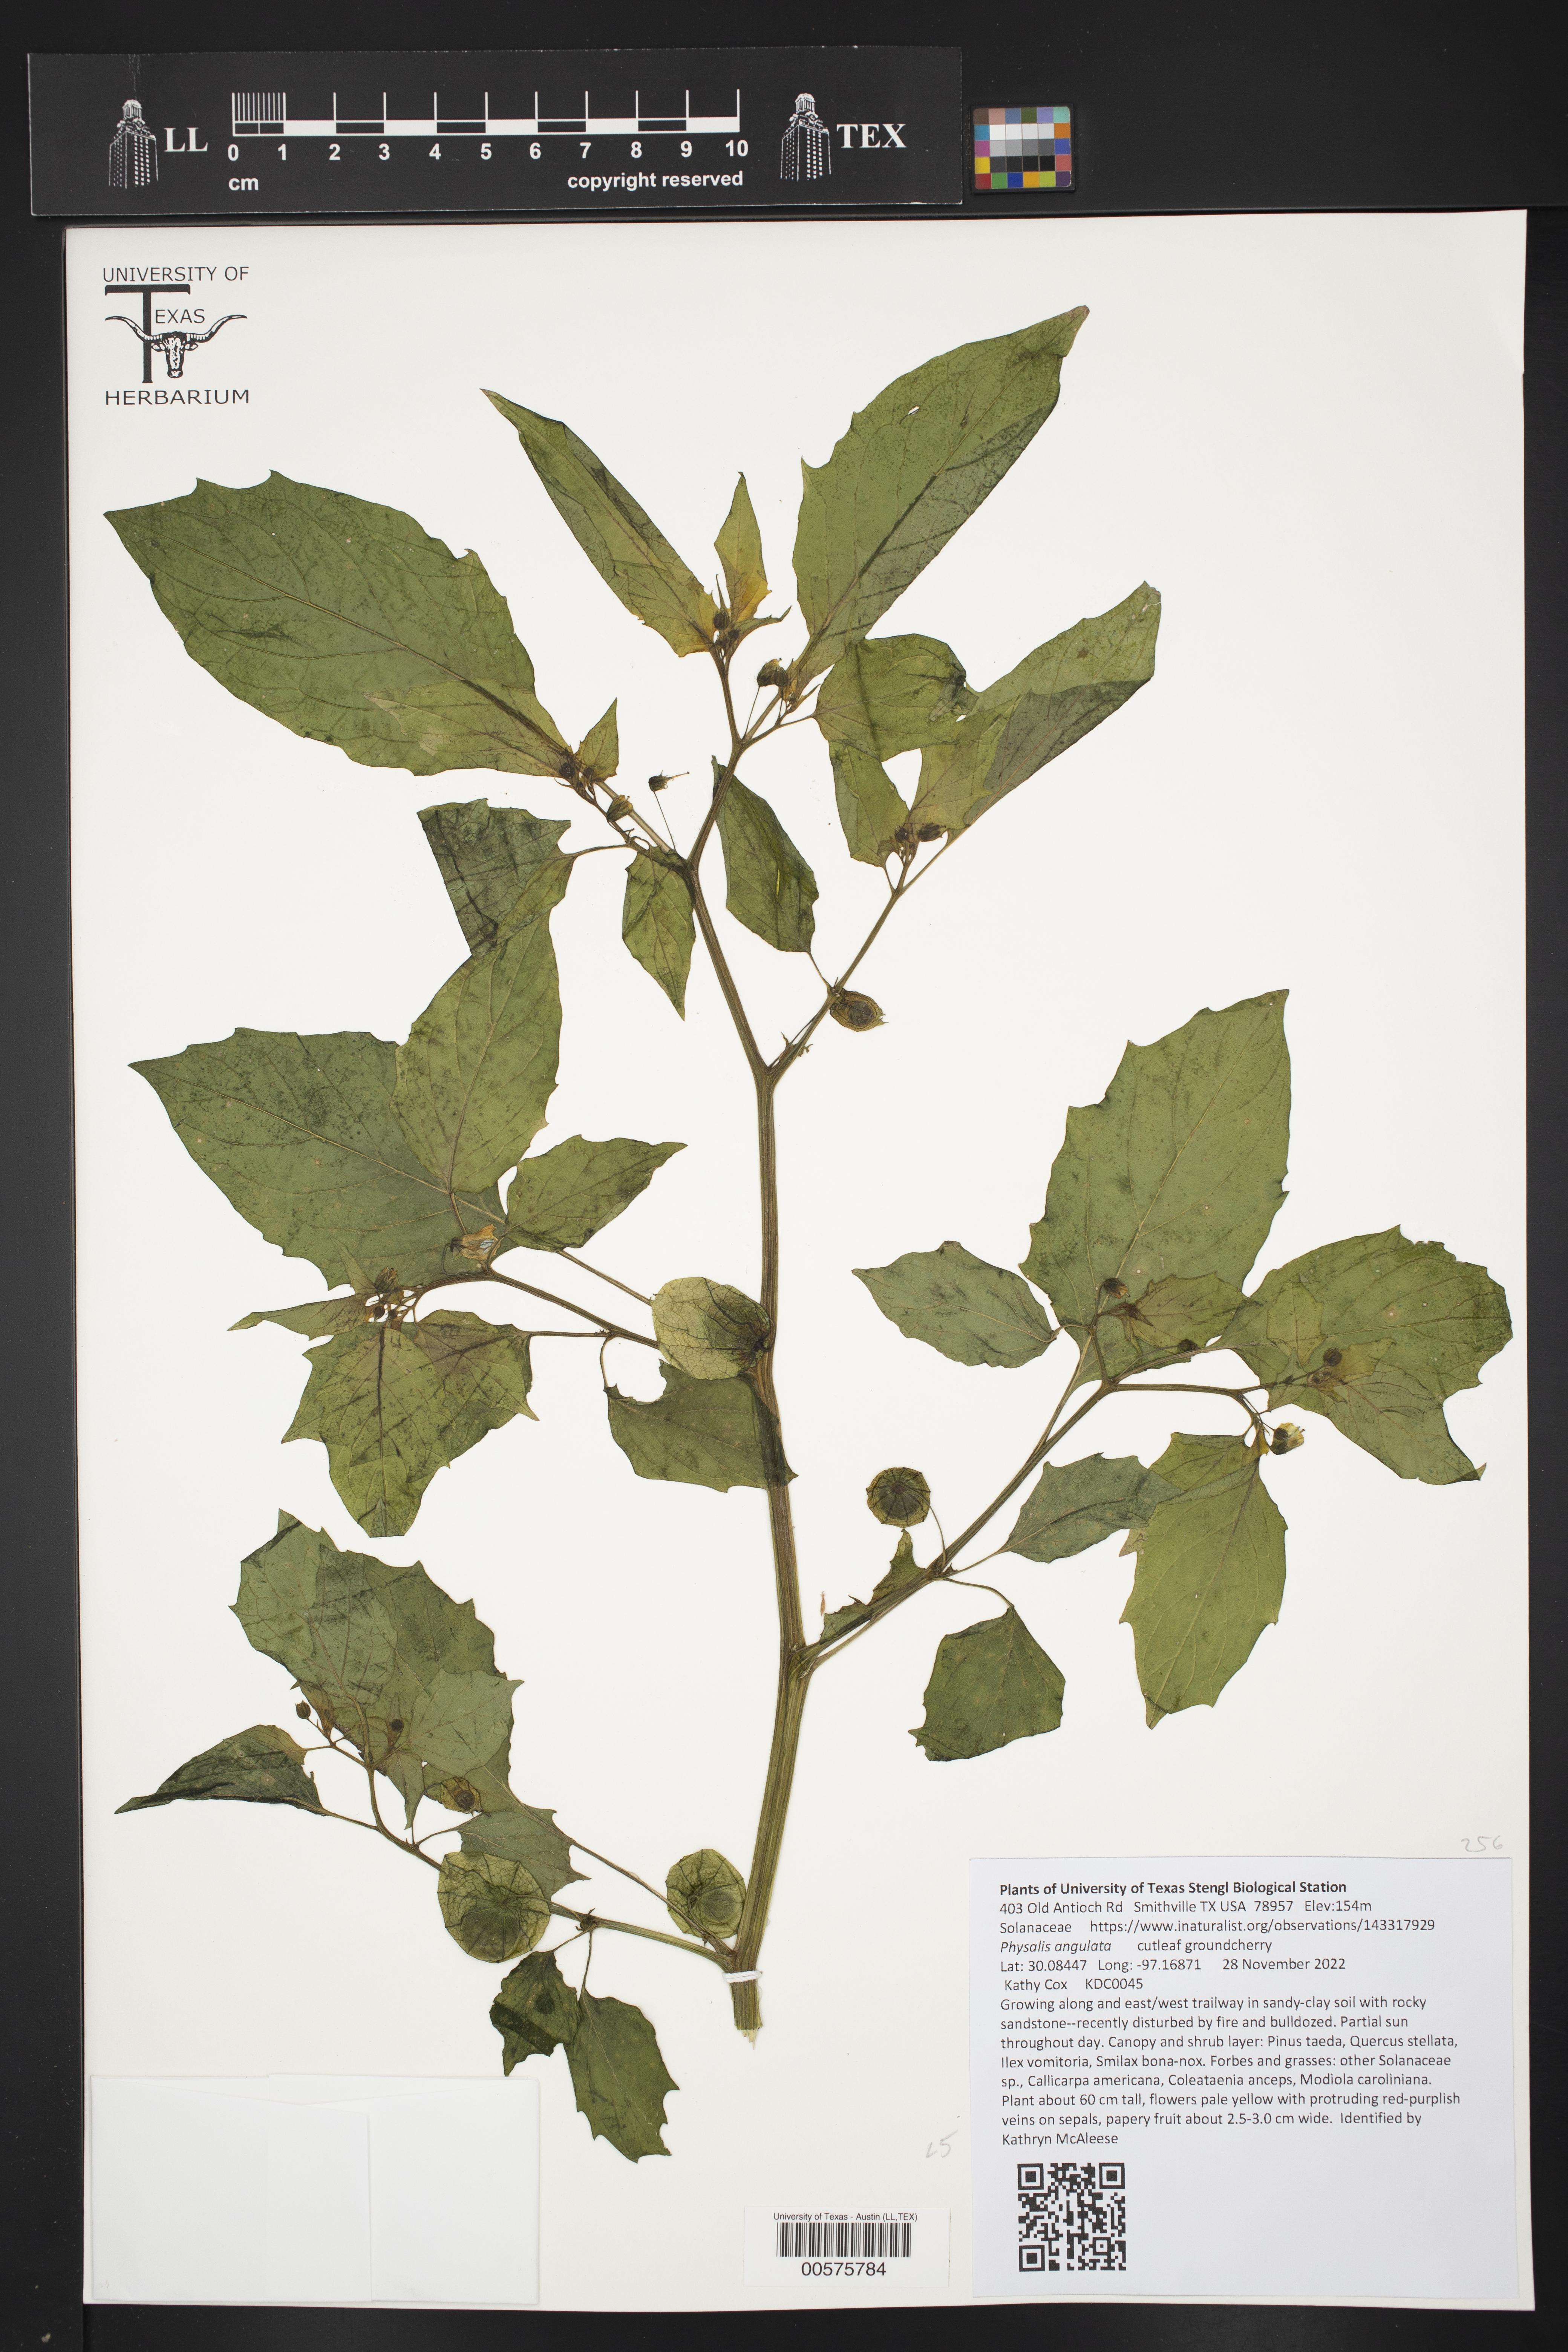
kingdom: Plantae
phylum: Tracheophyta
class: Magnoliopsida
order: Solanales
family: Solanaceae
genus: Physalis
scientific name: Physalis angulata
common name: Angular winter-cherry
